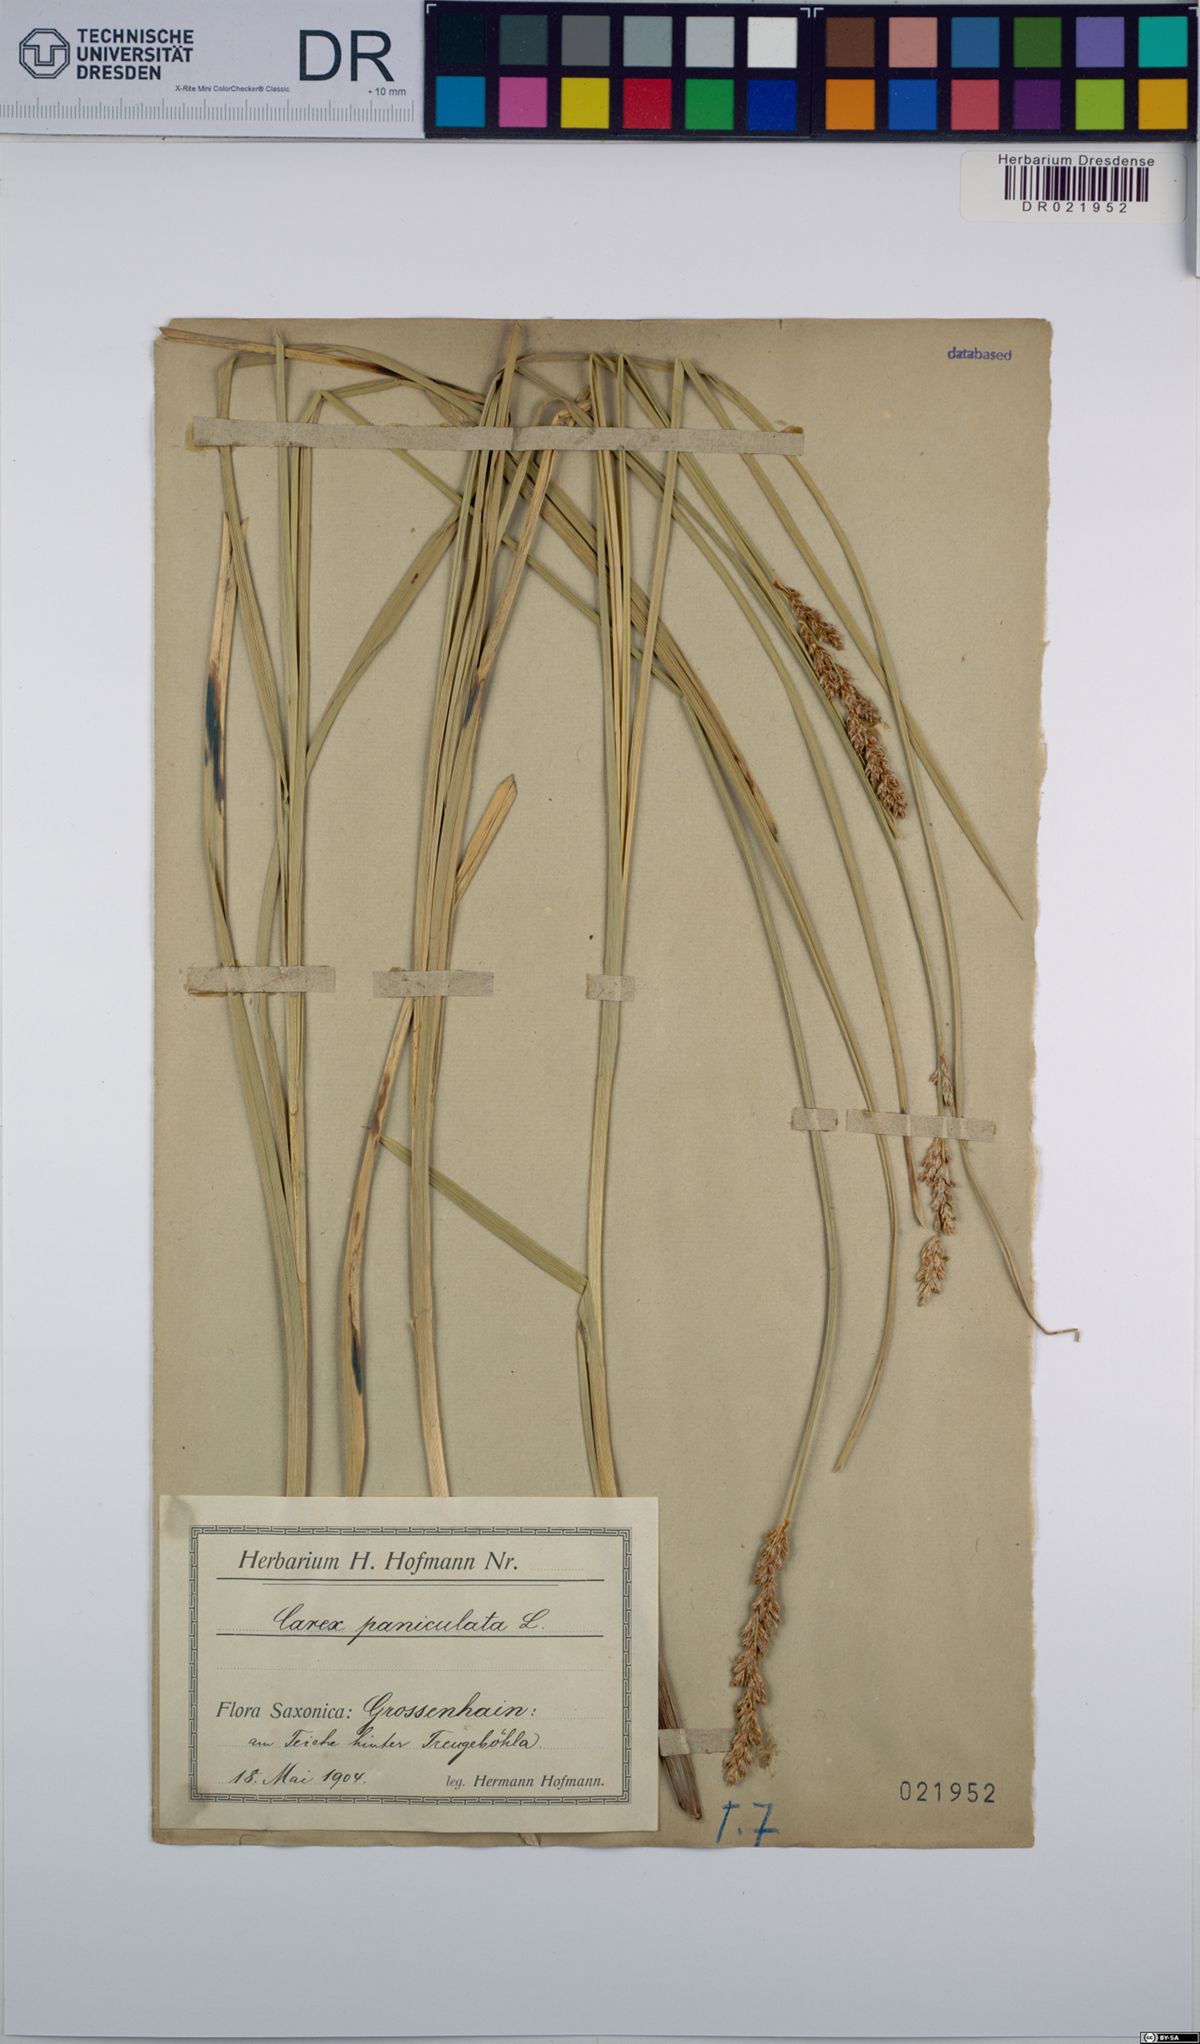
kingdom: Plantae
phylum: Tracheophyta
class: Liliopsida
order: Poales
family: Cyperaceae
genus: Carex
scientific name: Carex paniculata
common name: Greater tussock-sedge
